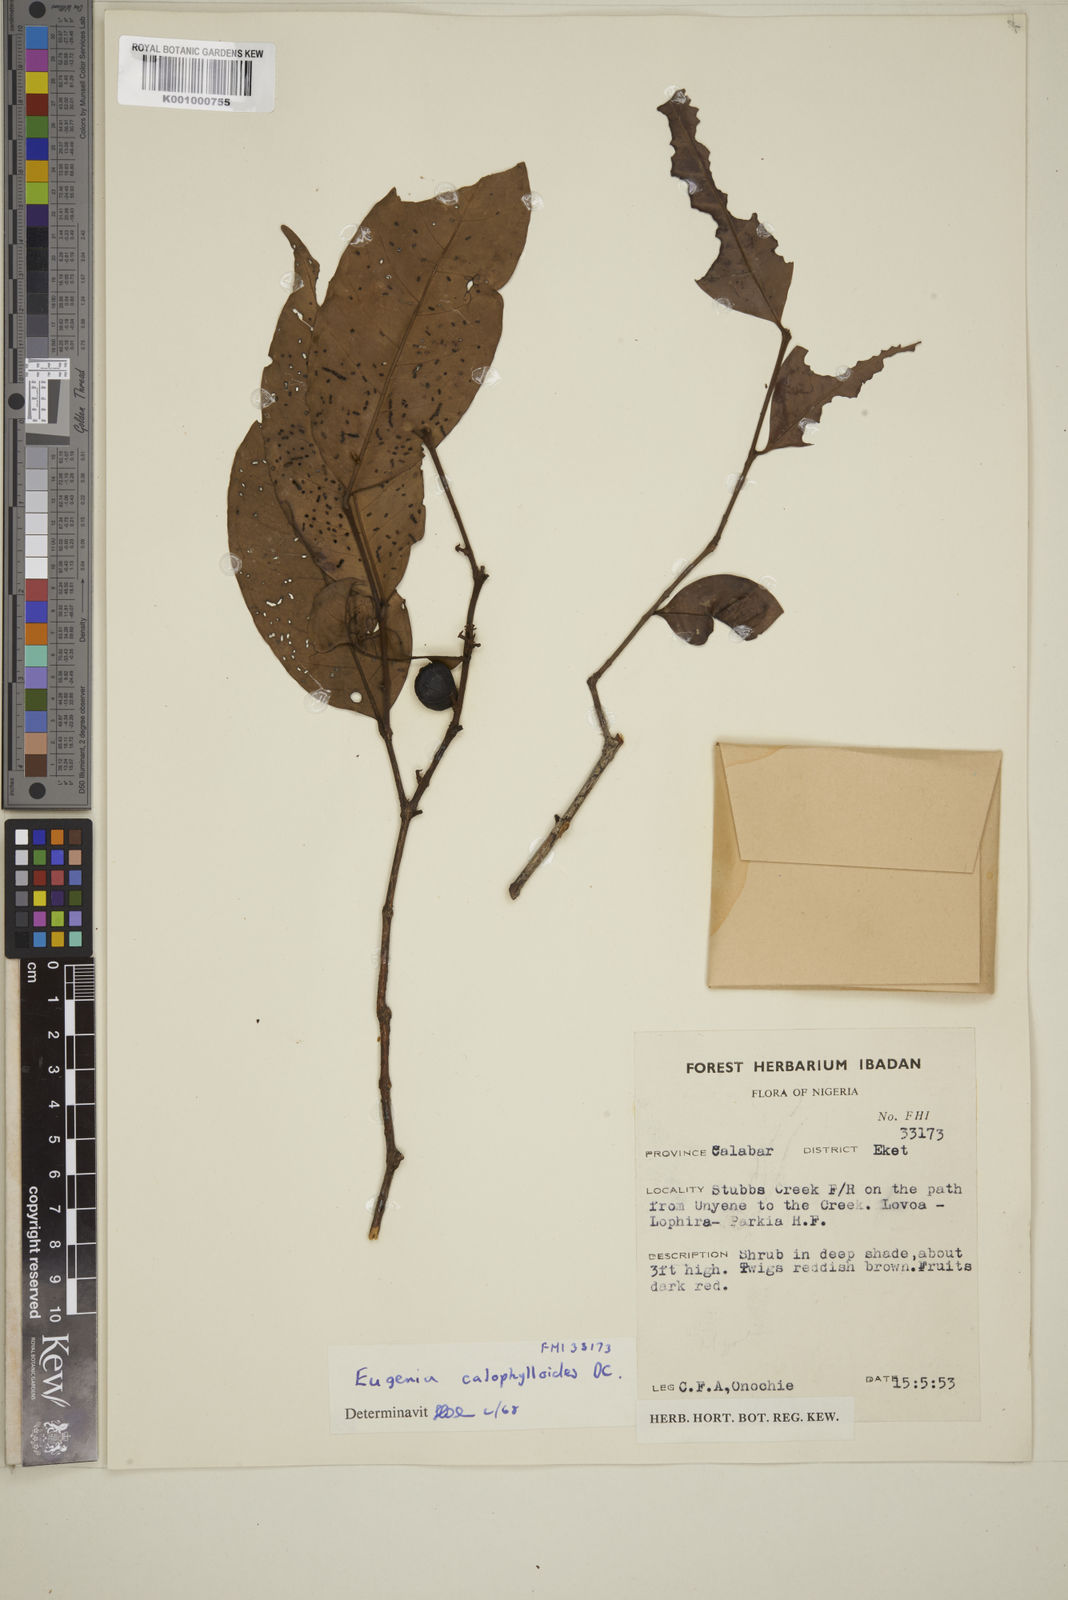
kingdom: Plantae
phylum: Tracheophyta
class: Magnoliopsida
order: Myrtales
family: Myrtaceae
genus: Eugenia
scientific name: Eugenia calophylloides
